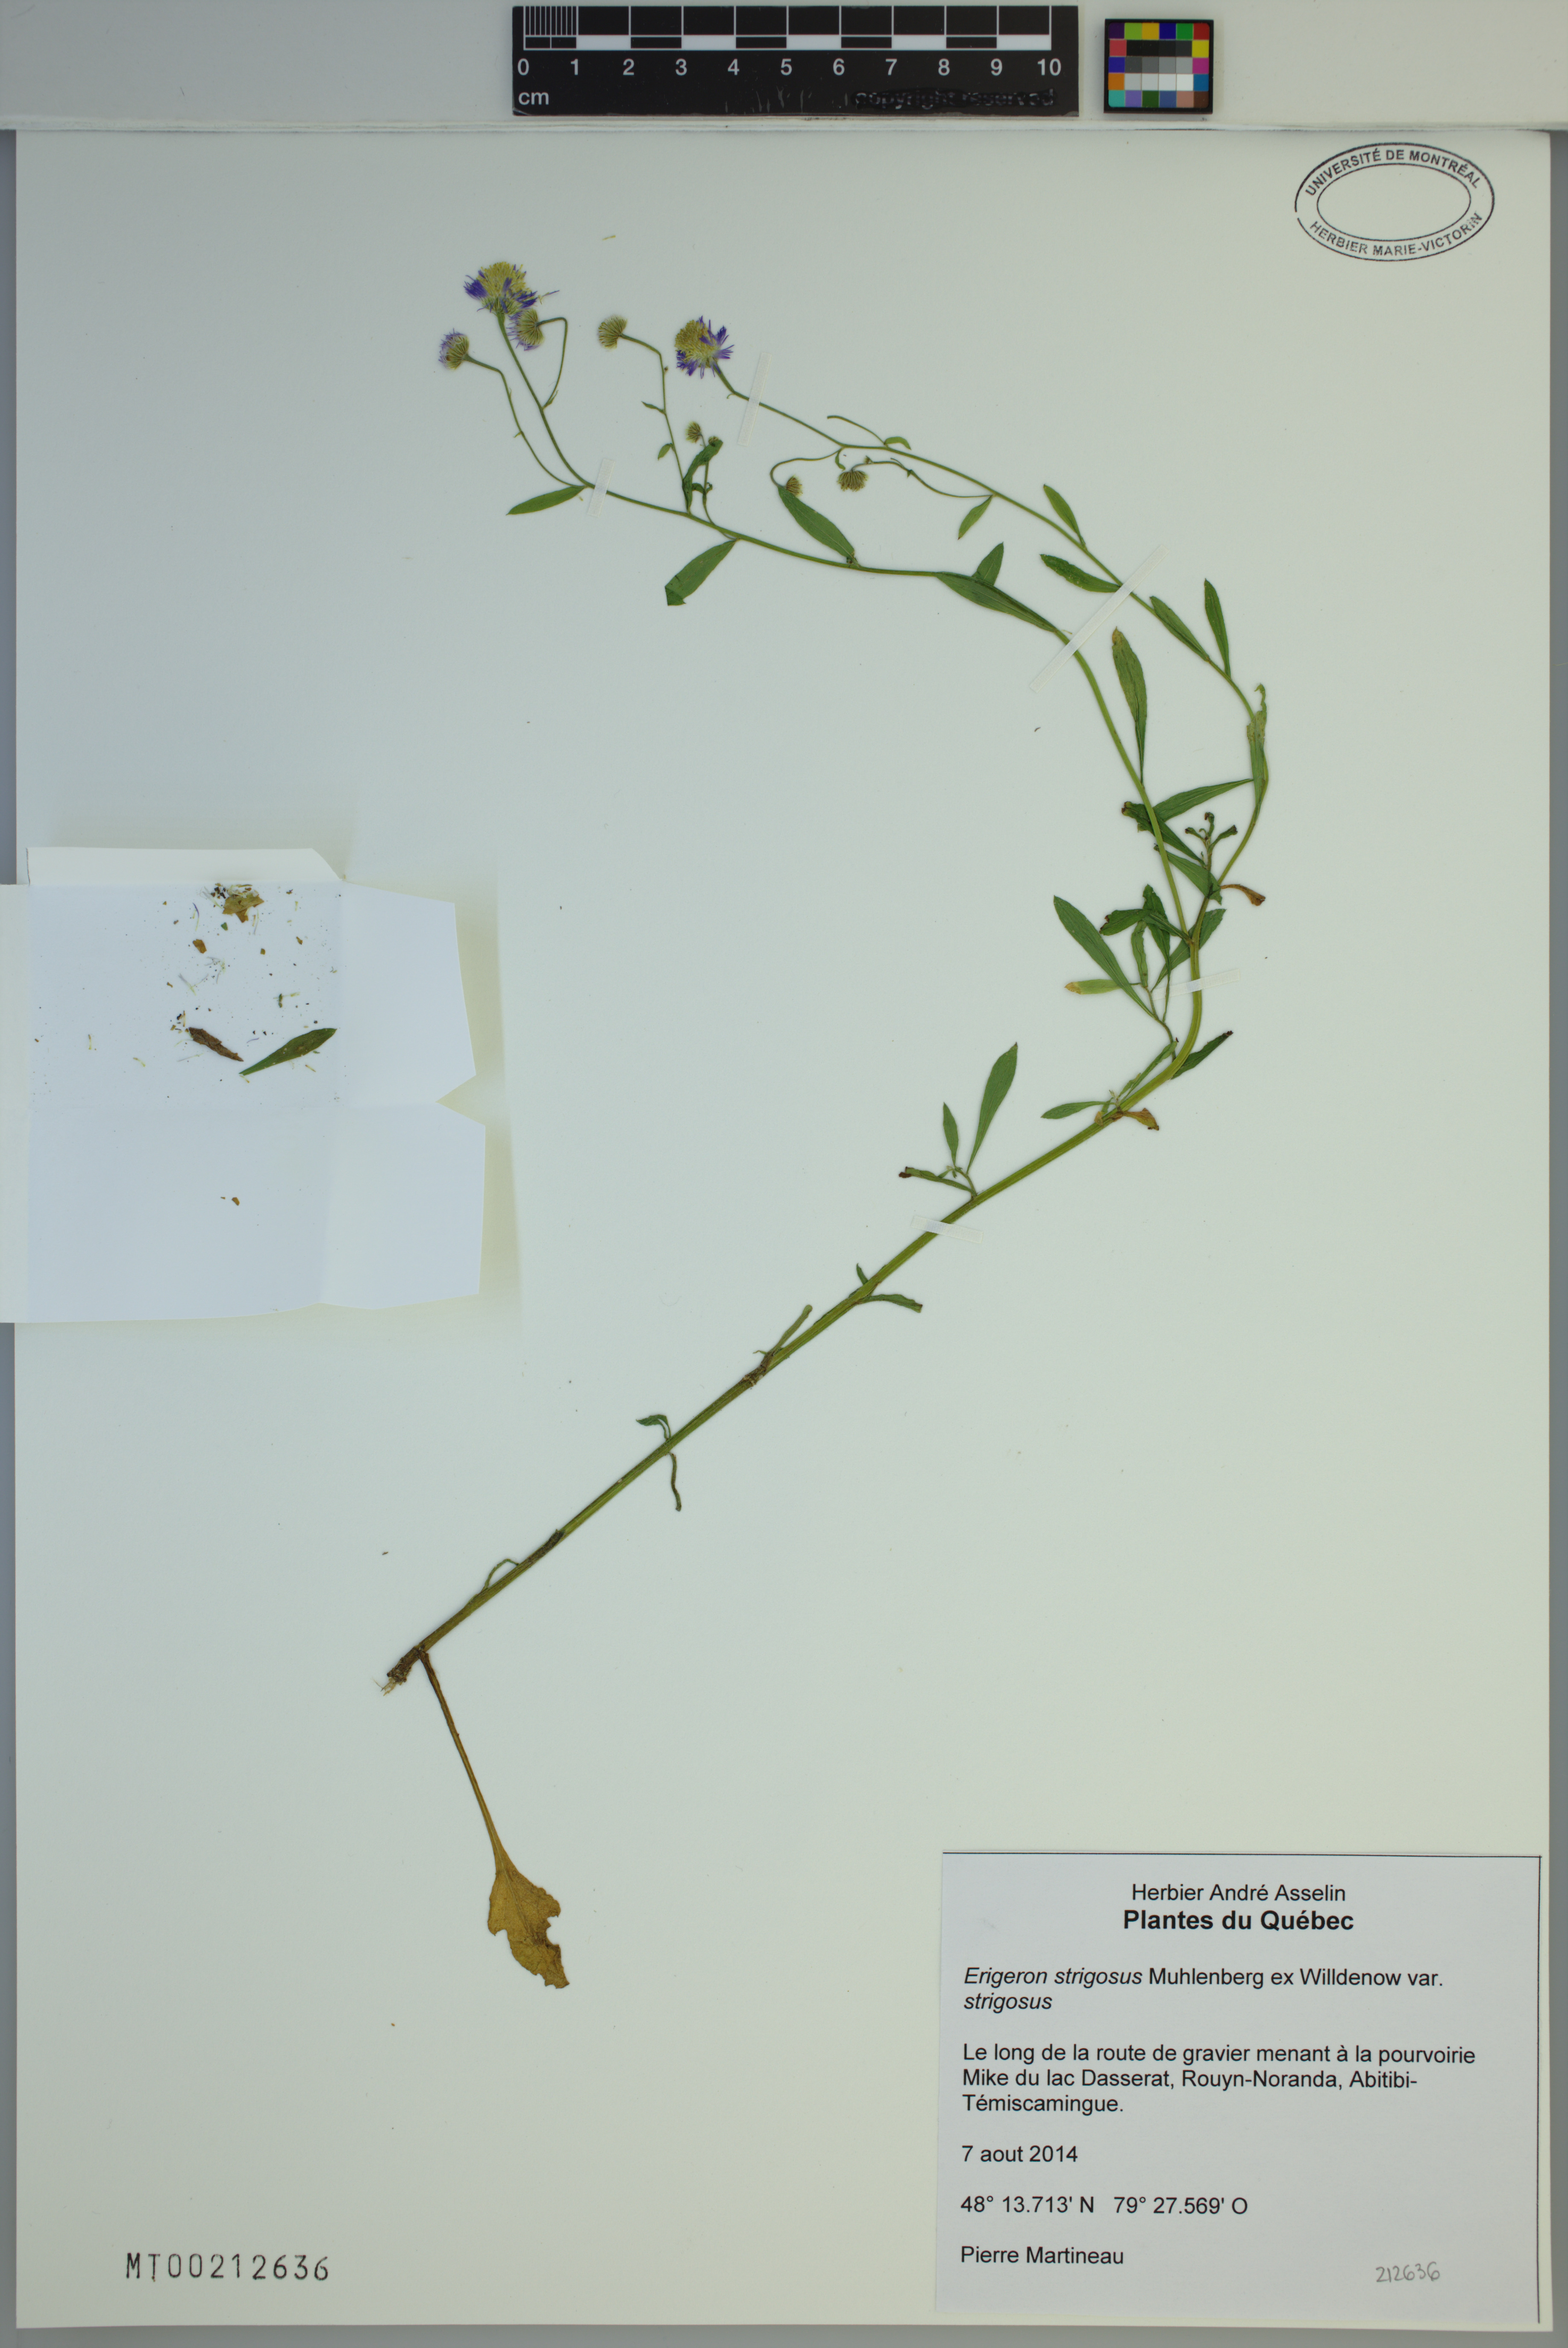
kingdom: Plantae
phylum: Tracheophyta
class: Magnoliopsida
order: Asterales
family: Asteraceae
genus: Erigeron
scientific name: Erigeron strigosus
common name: Common eastern fleabane
